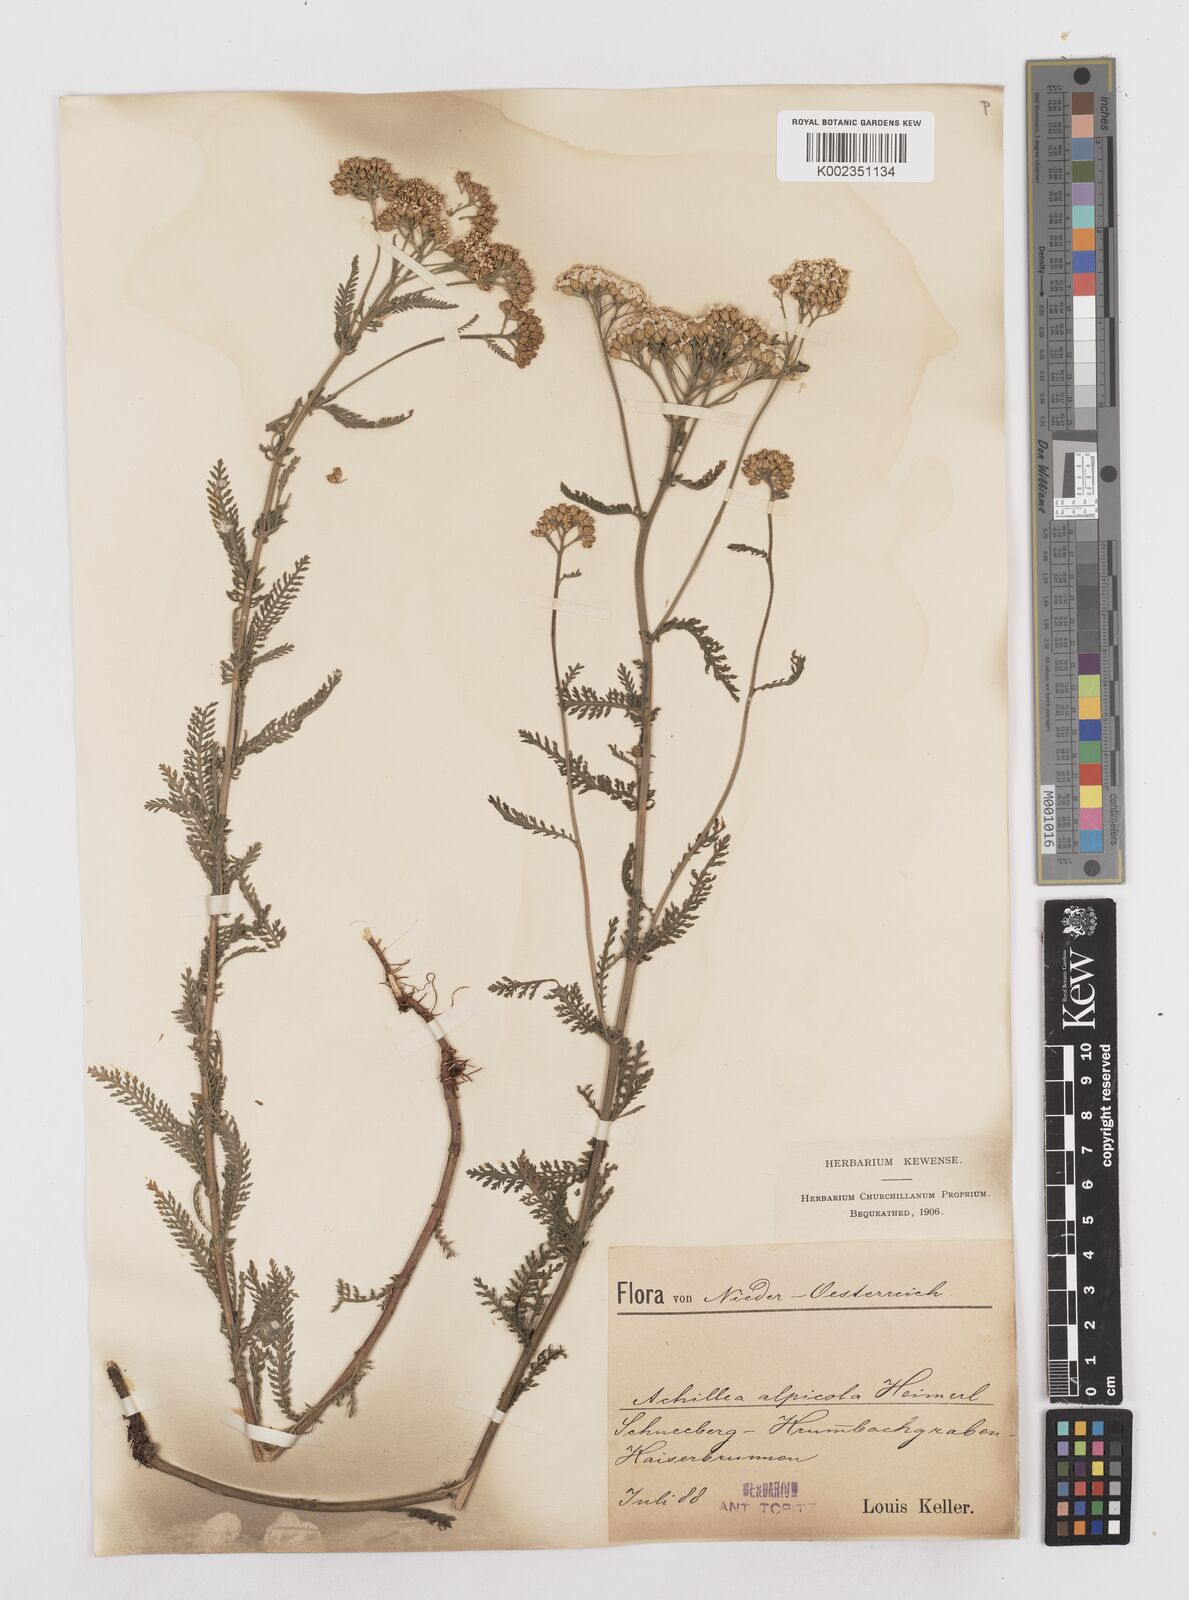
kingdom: Plantae
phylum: Tracheophyta
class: Magnoliopsida
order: Asterales
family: Asteraceae
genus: Achillea
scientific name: Achillea millefolium
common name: Yarrow
